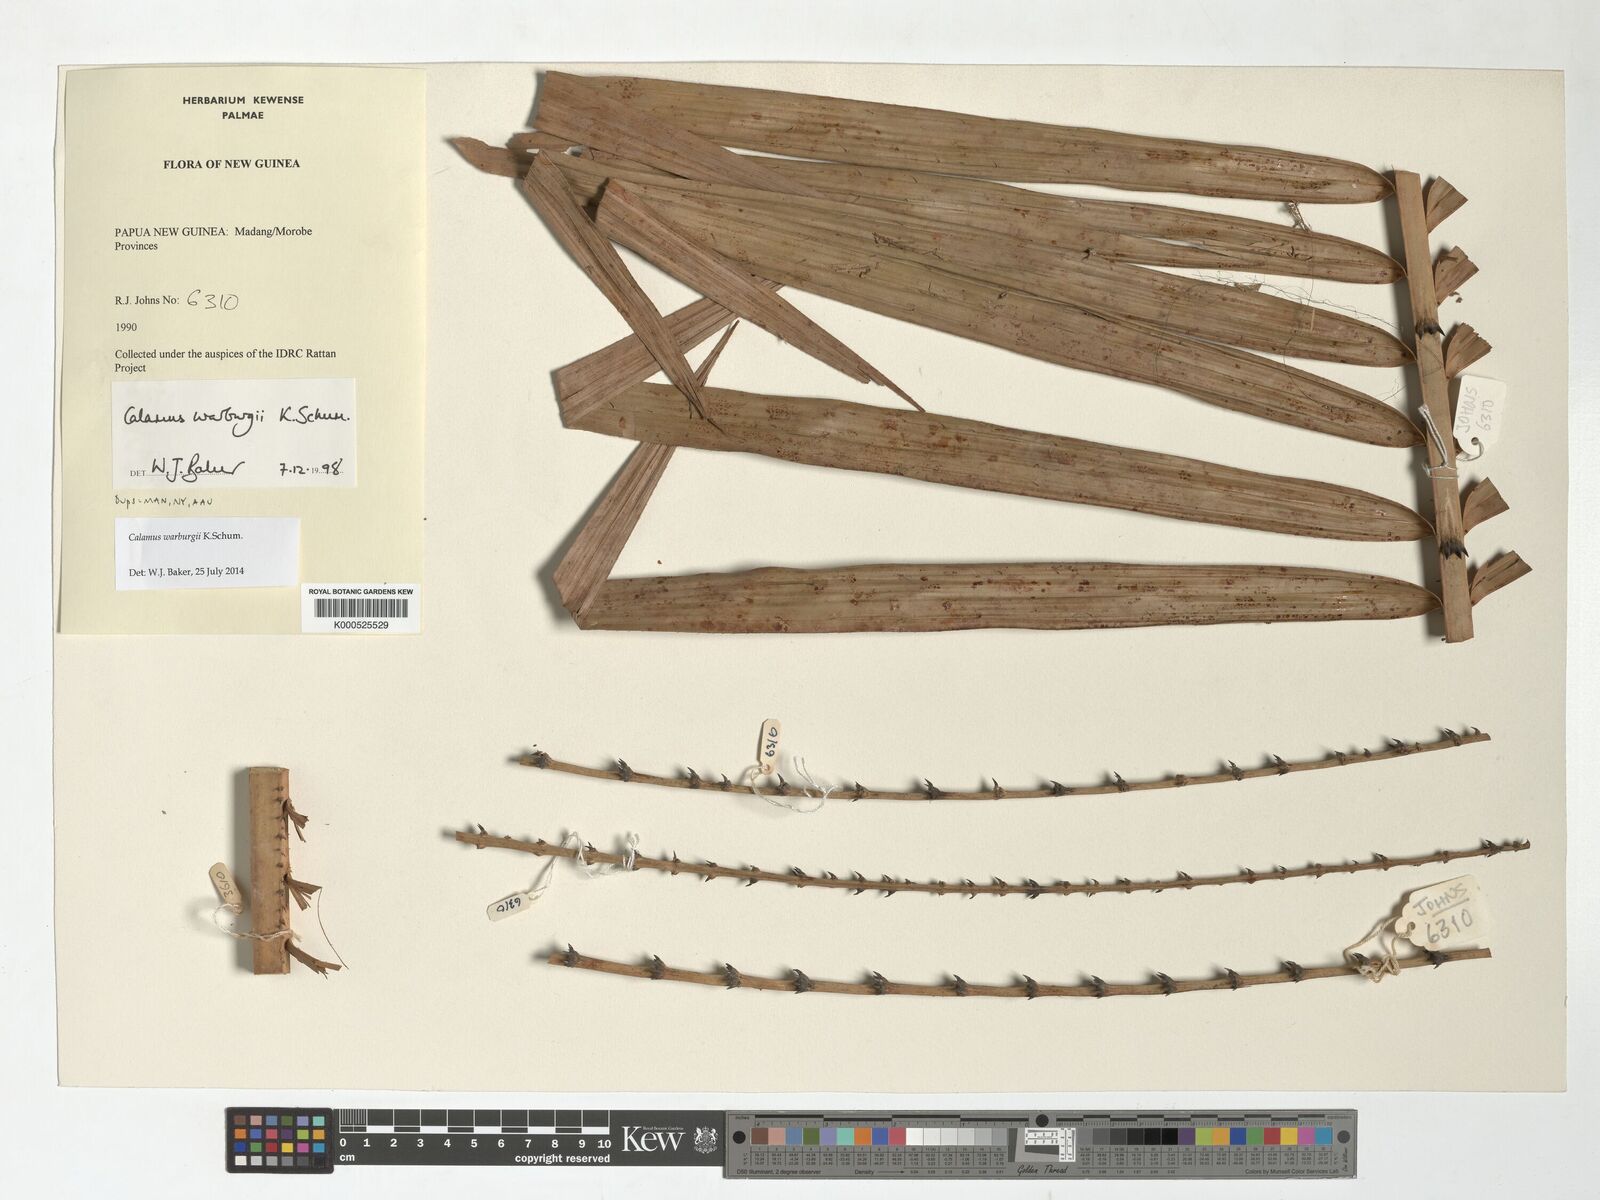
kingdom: Plantae
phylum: Tracheophyta
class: Liliopsida
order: Arecales
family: Arecaceae
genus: Calamus
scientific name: Calamus warburgii
